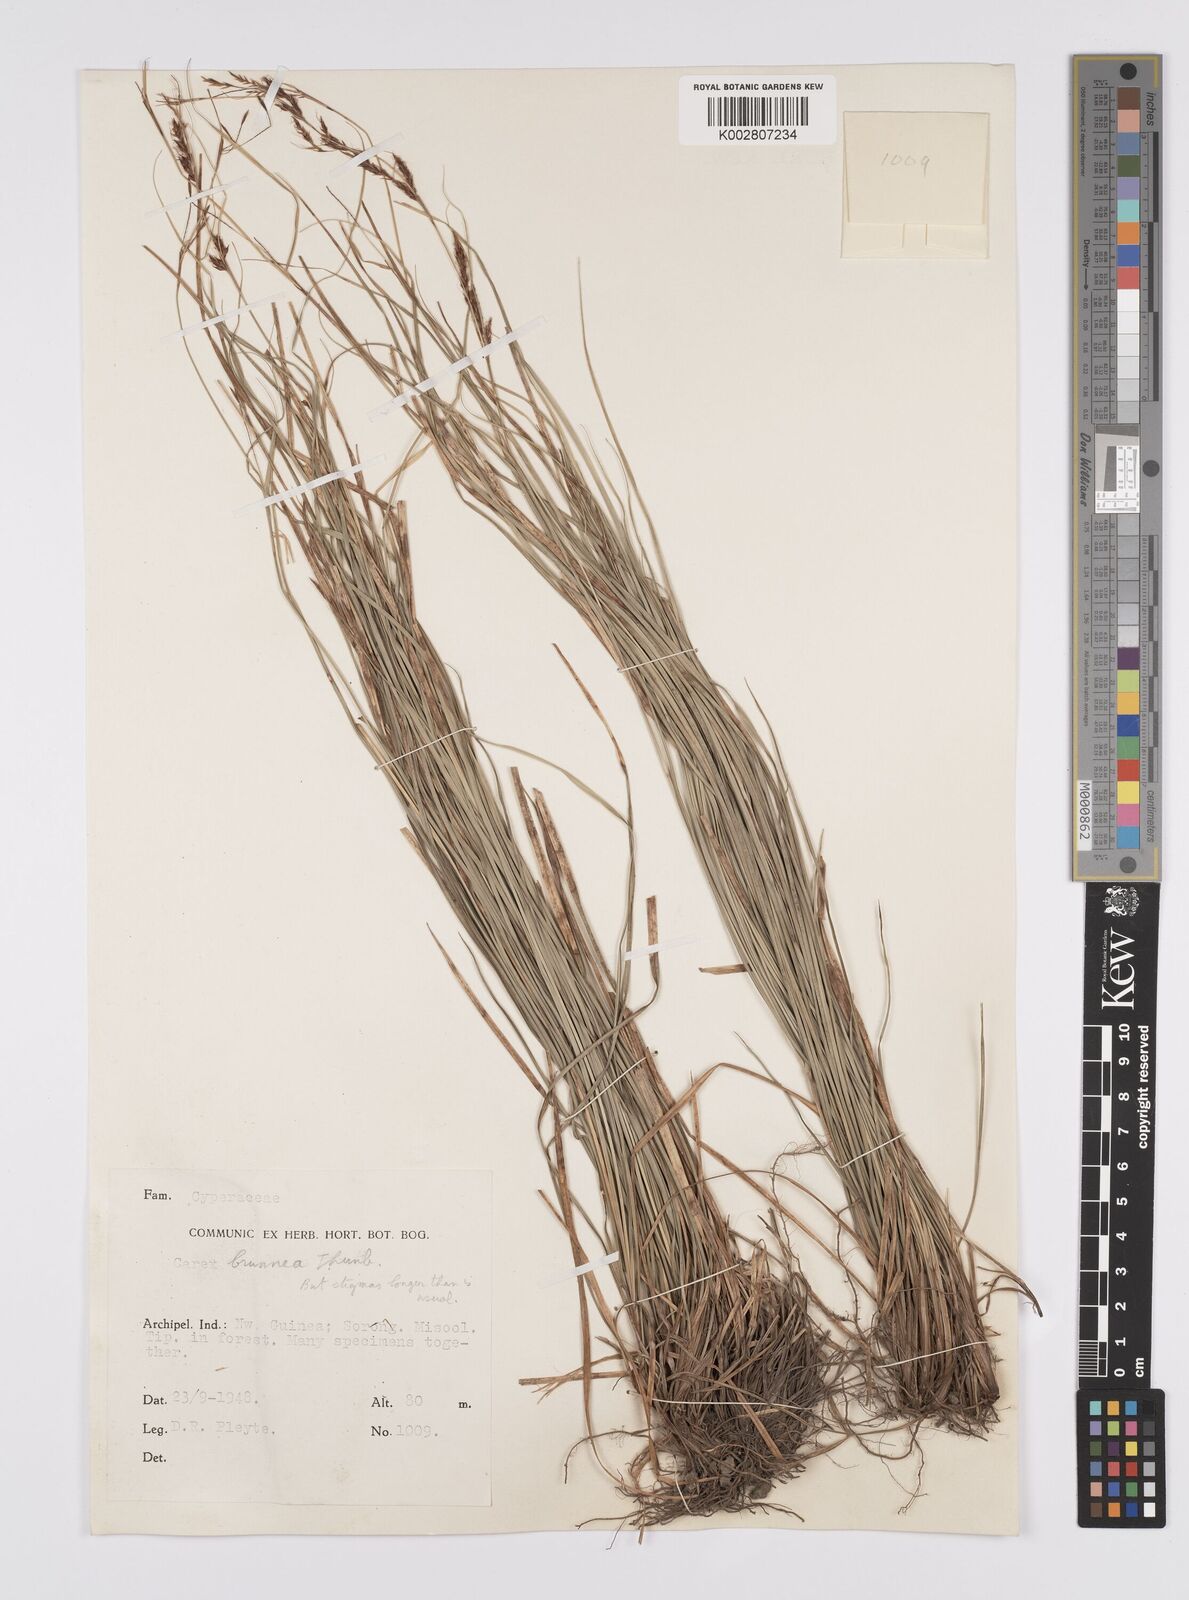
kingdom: Plantae
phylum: Tracheophyta
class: Liliopsida
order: Poales
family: Cyperaceae
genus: Carex
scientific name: Carex brunnea
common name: Greater brown sedge
